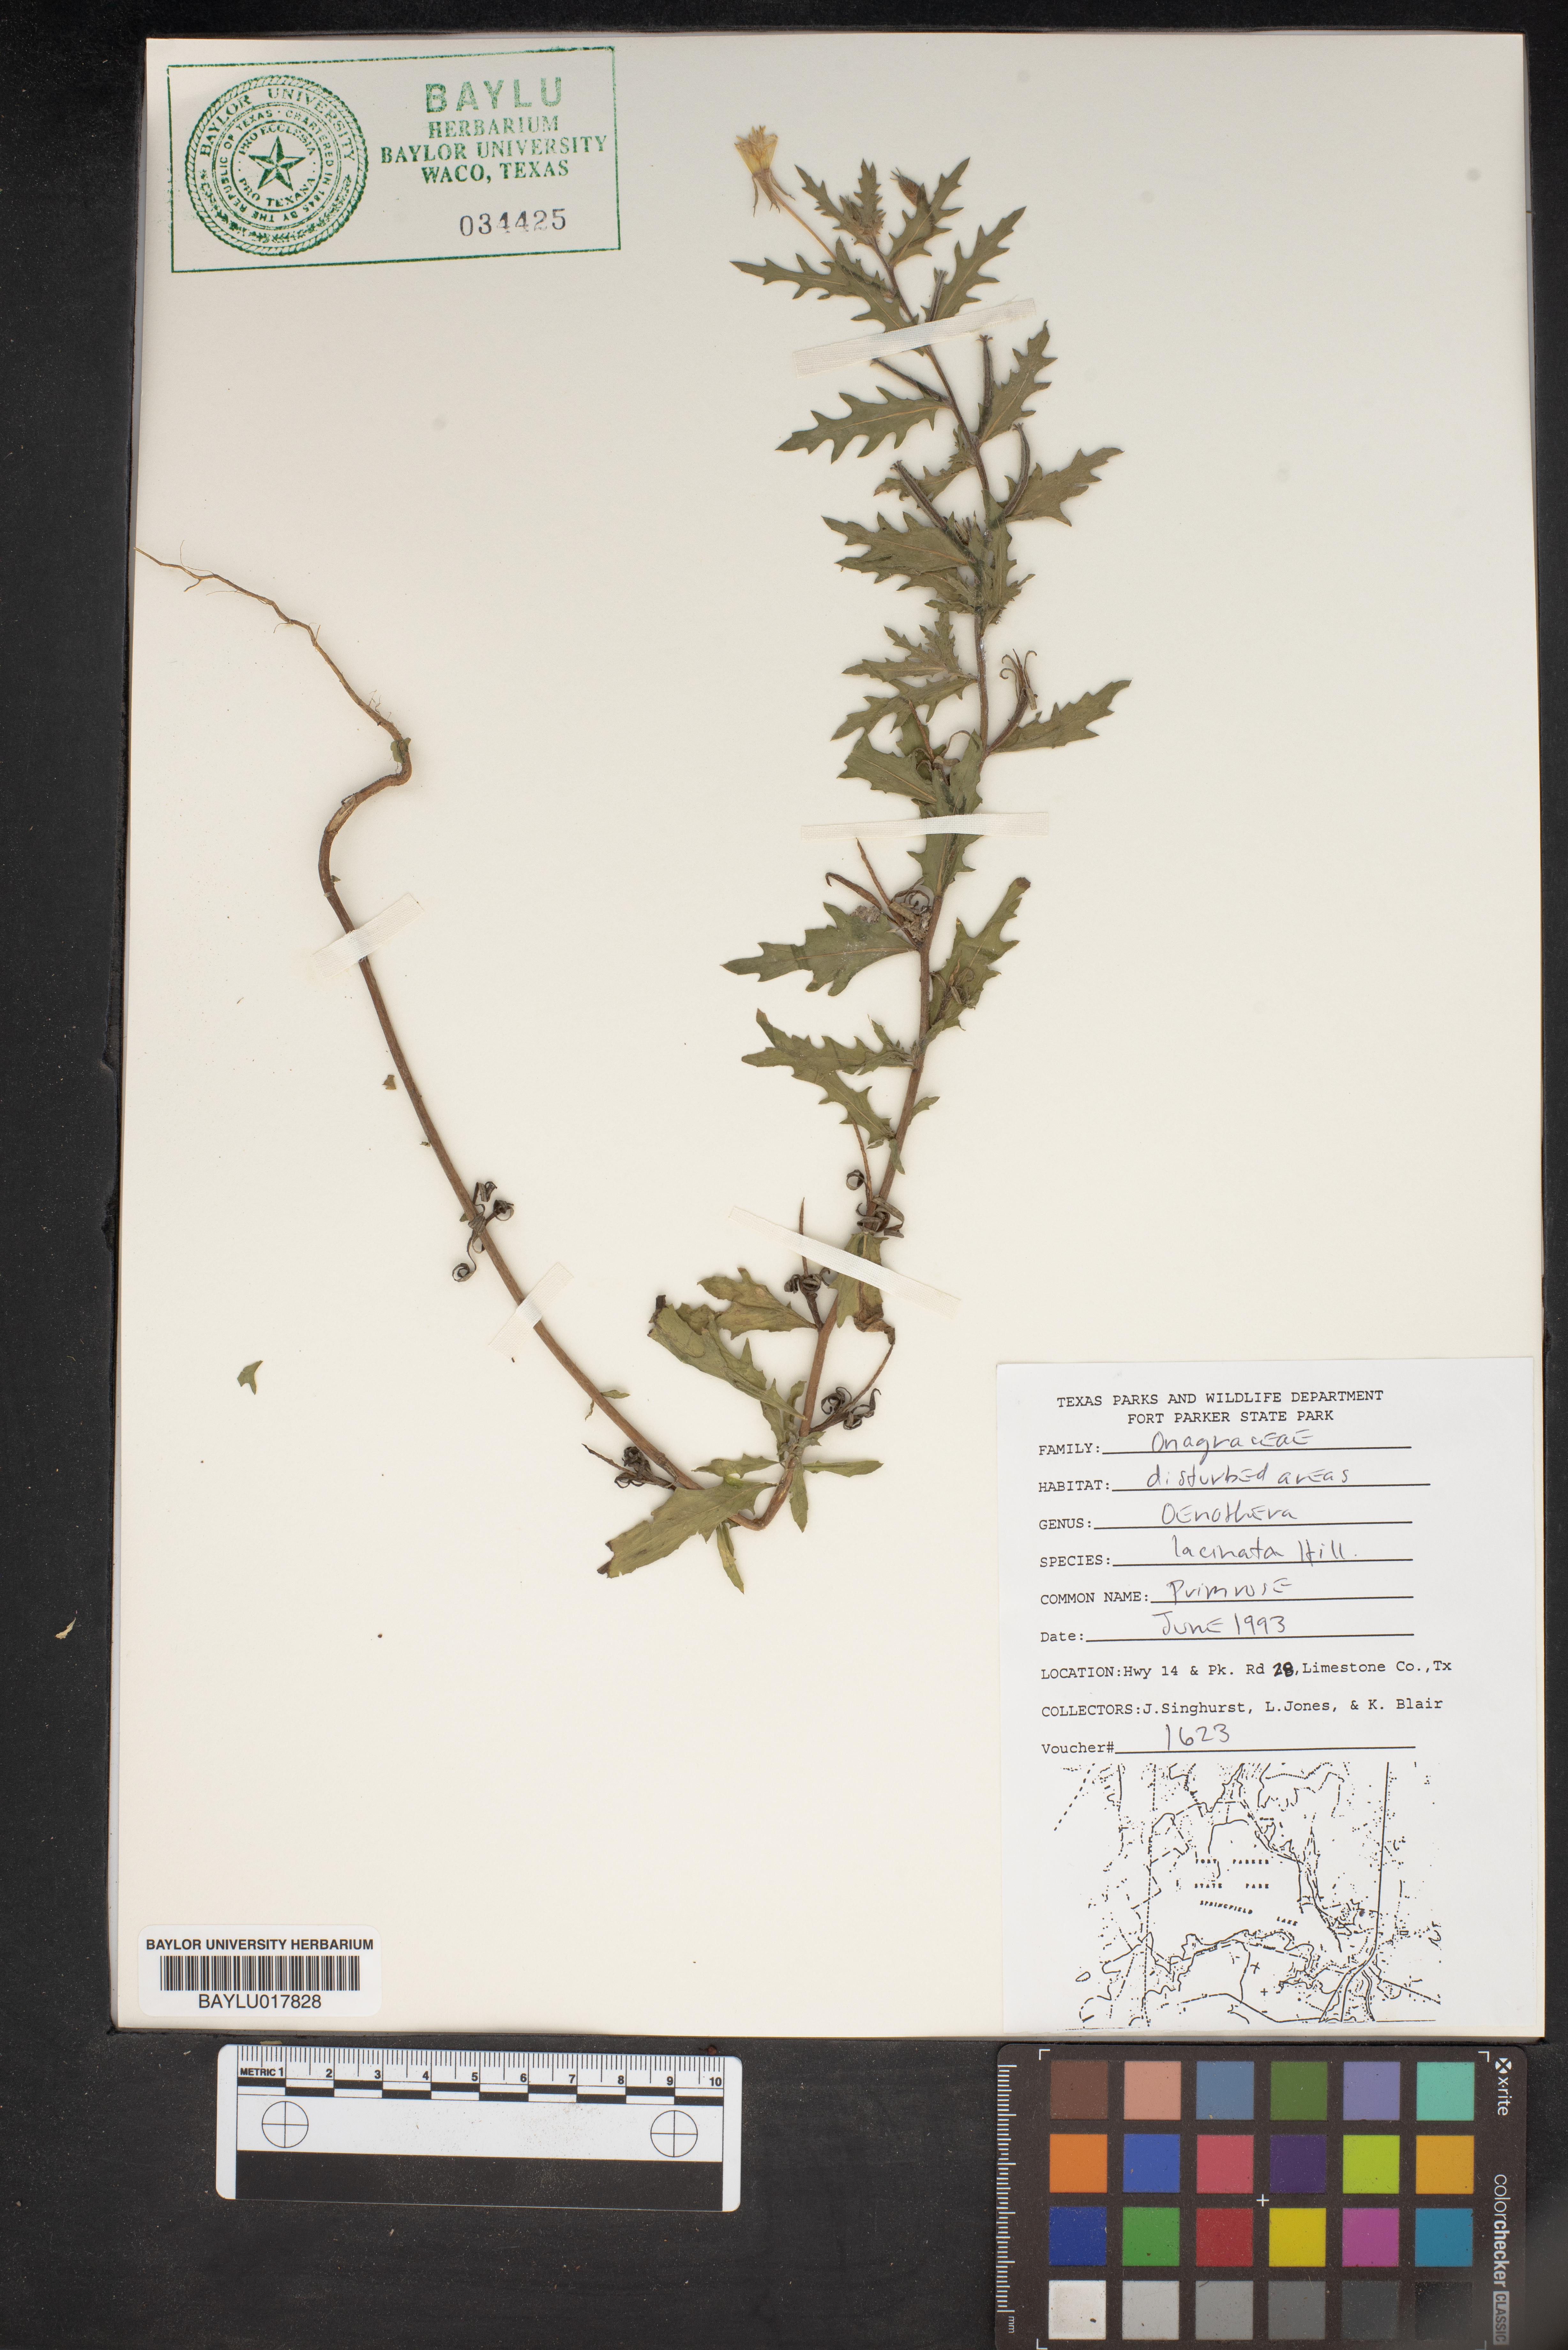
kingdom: Plantae
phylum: Tracheophyta
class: Magnoliopsida
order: Myrtales
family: Onagraceae
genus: Oenothera
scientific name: Oenothera laciniata
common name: Cut-leaved evening-primrose
